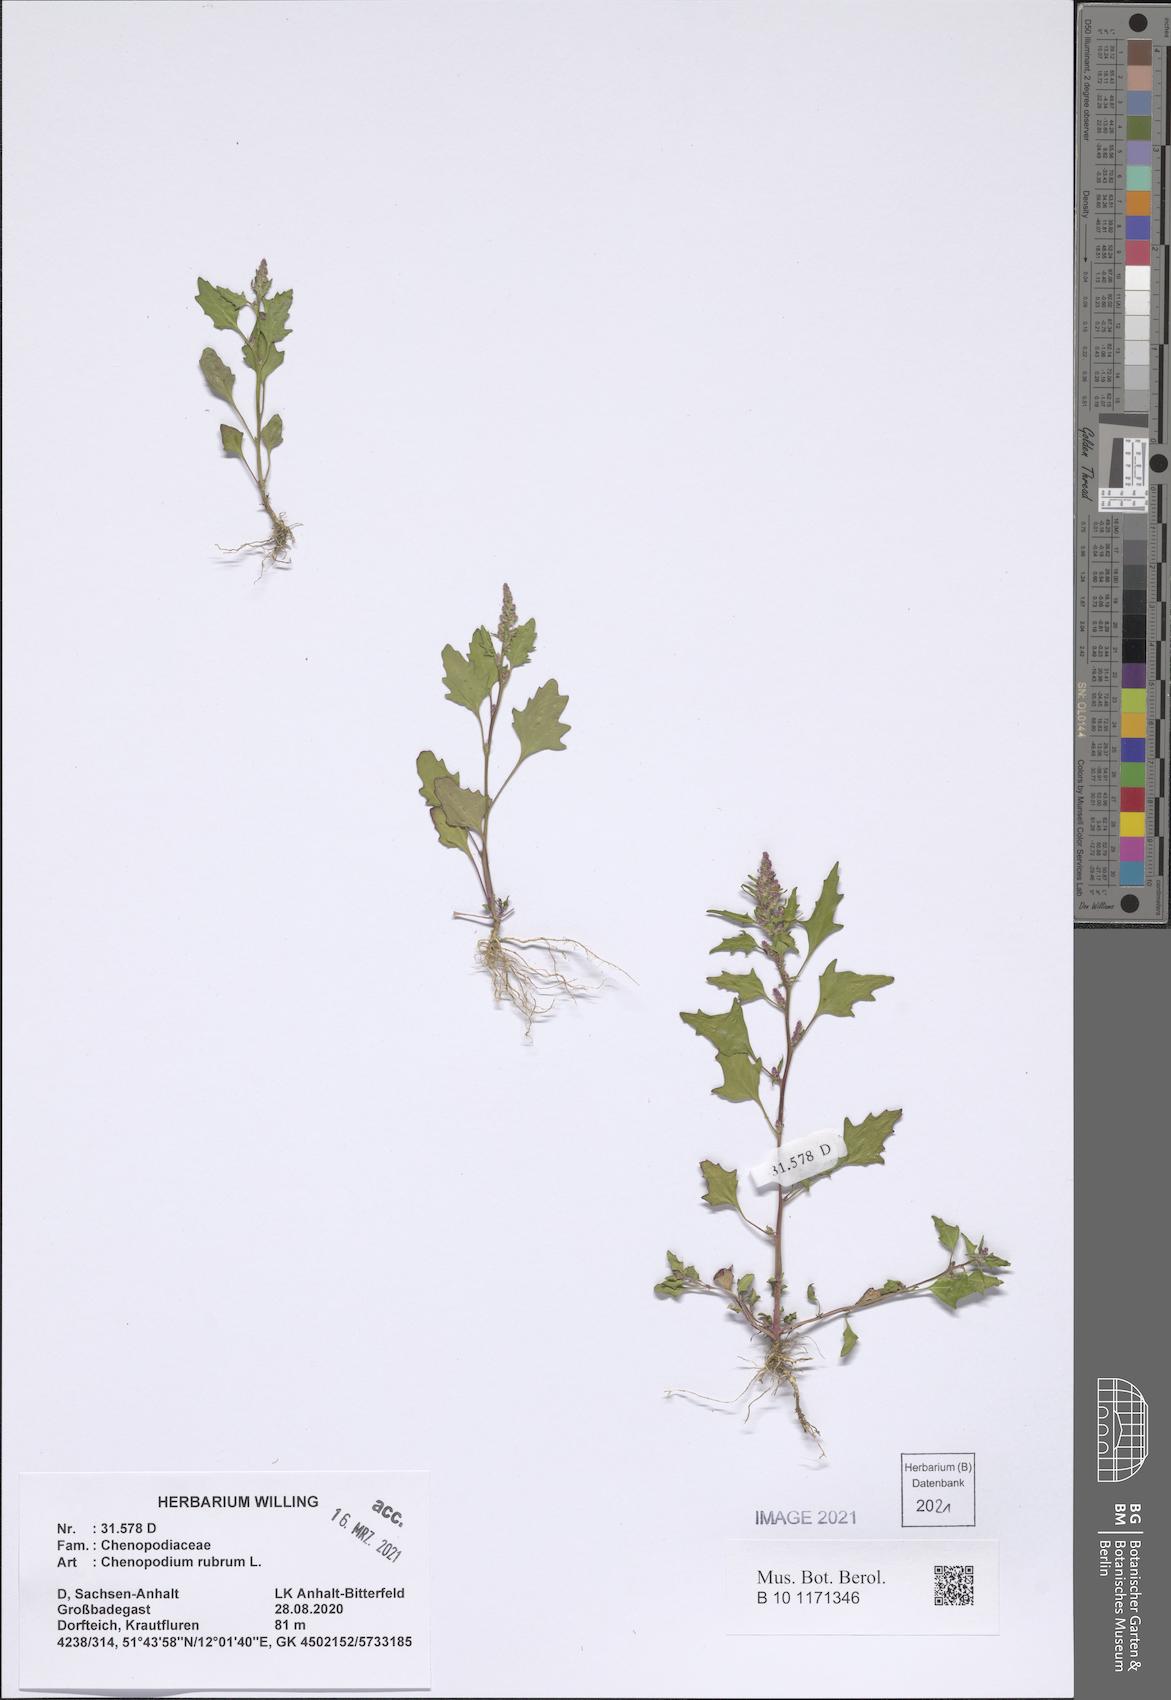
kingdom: Plantae
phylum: Tracheophyta
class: Magnoliopsida
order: Caryophyllales
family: Amaranthaceae
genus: Oxybasis
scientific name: Oxybasis rubra
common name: Red goosefoot
